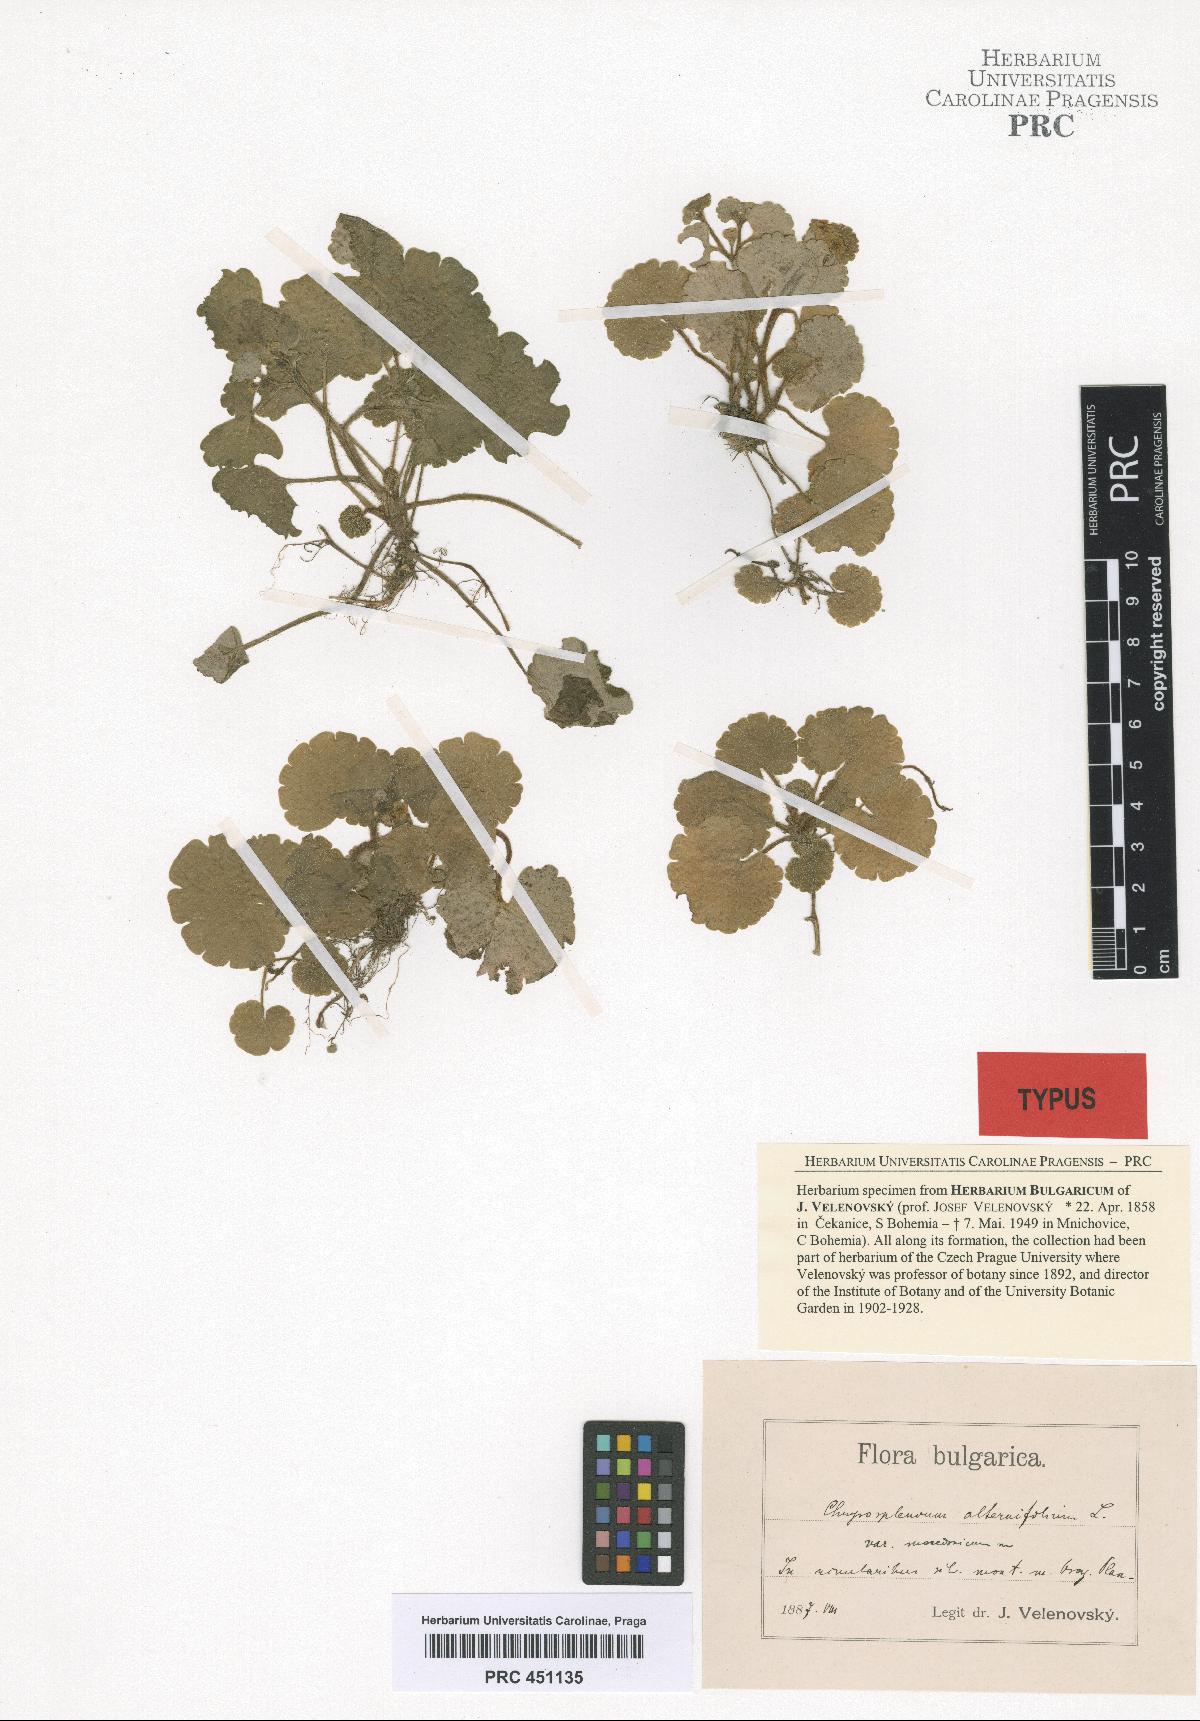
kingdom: Plantae
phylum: Tracheophyta
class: Magnoliopsida
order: Saxifragales
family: Saxifragaceae
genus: Chrysosplenium
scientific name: Chrysosplenium alternifolium
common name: Alternate-leaved golden-saxifrage
